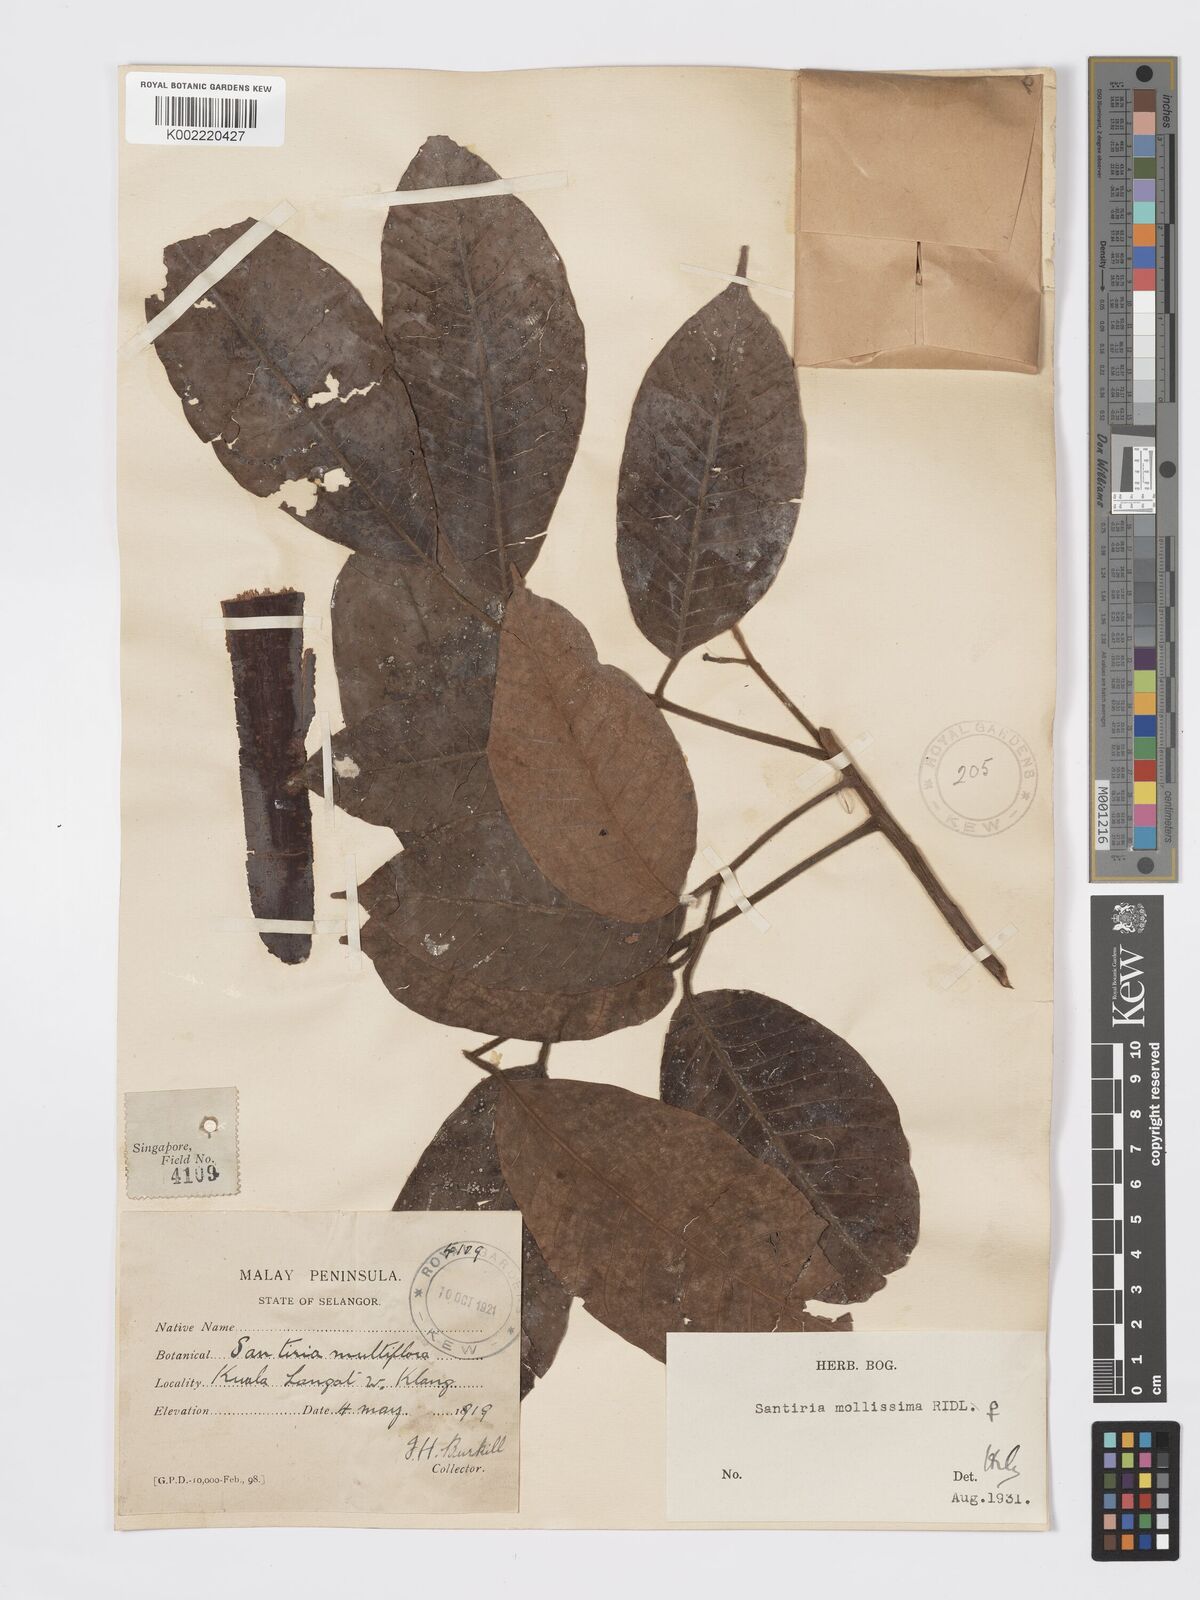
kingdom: Plantae
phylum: Tracheophyta
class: Magnoliopsida
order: Sapindales
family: Burseraceae
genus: Santiria
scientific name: Santiria tomentosa
